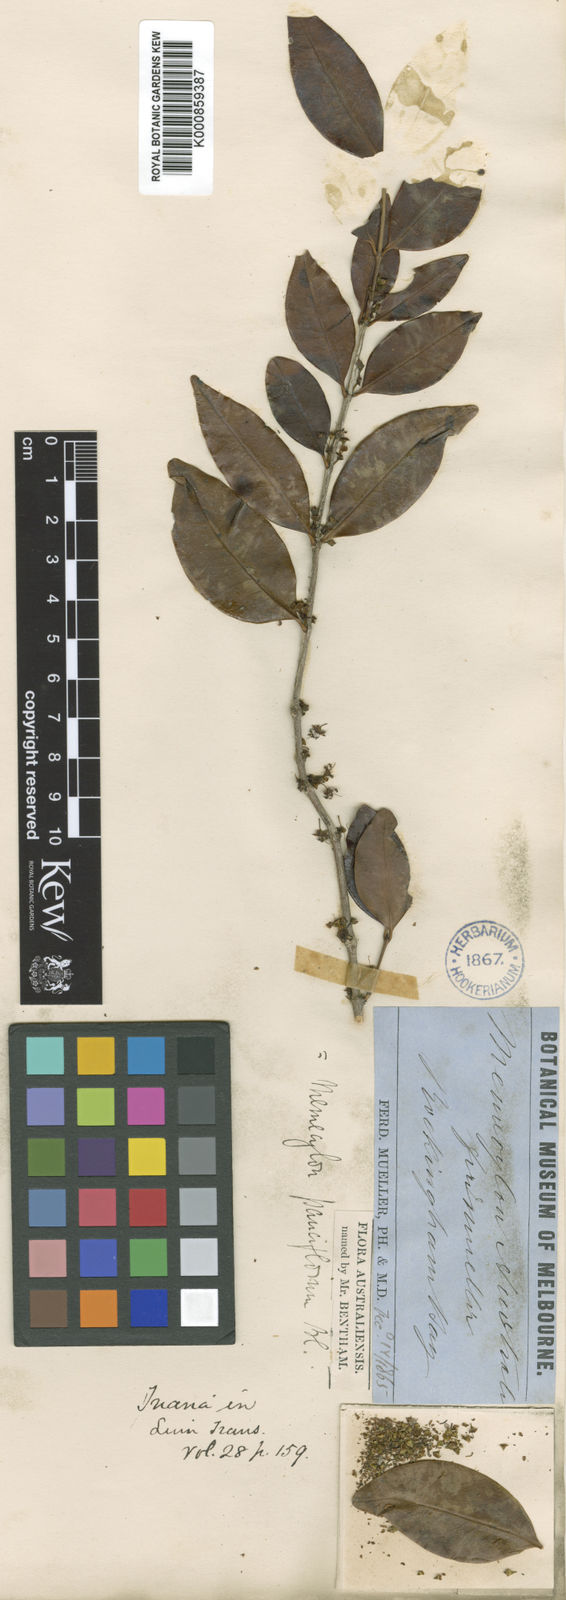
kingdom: Plantae
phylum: Tracheophyta
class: Magnoliopsida
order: Myrtales
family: Melastomataceae
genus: Memecylon
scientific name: Memecylon pauciflorum
